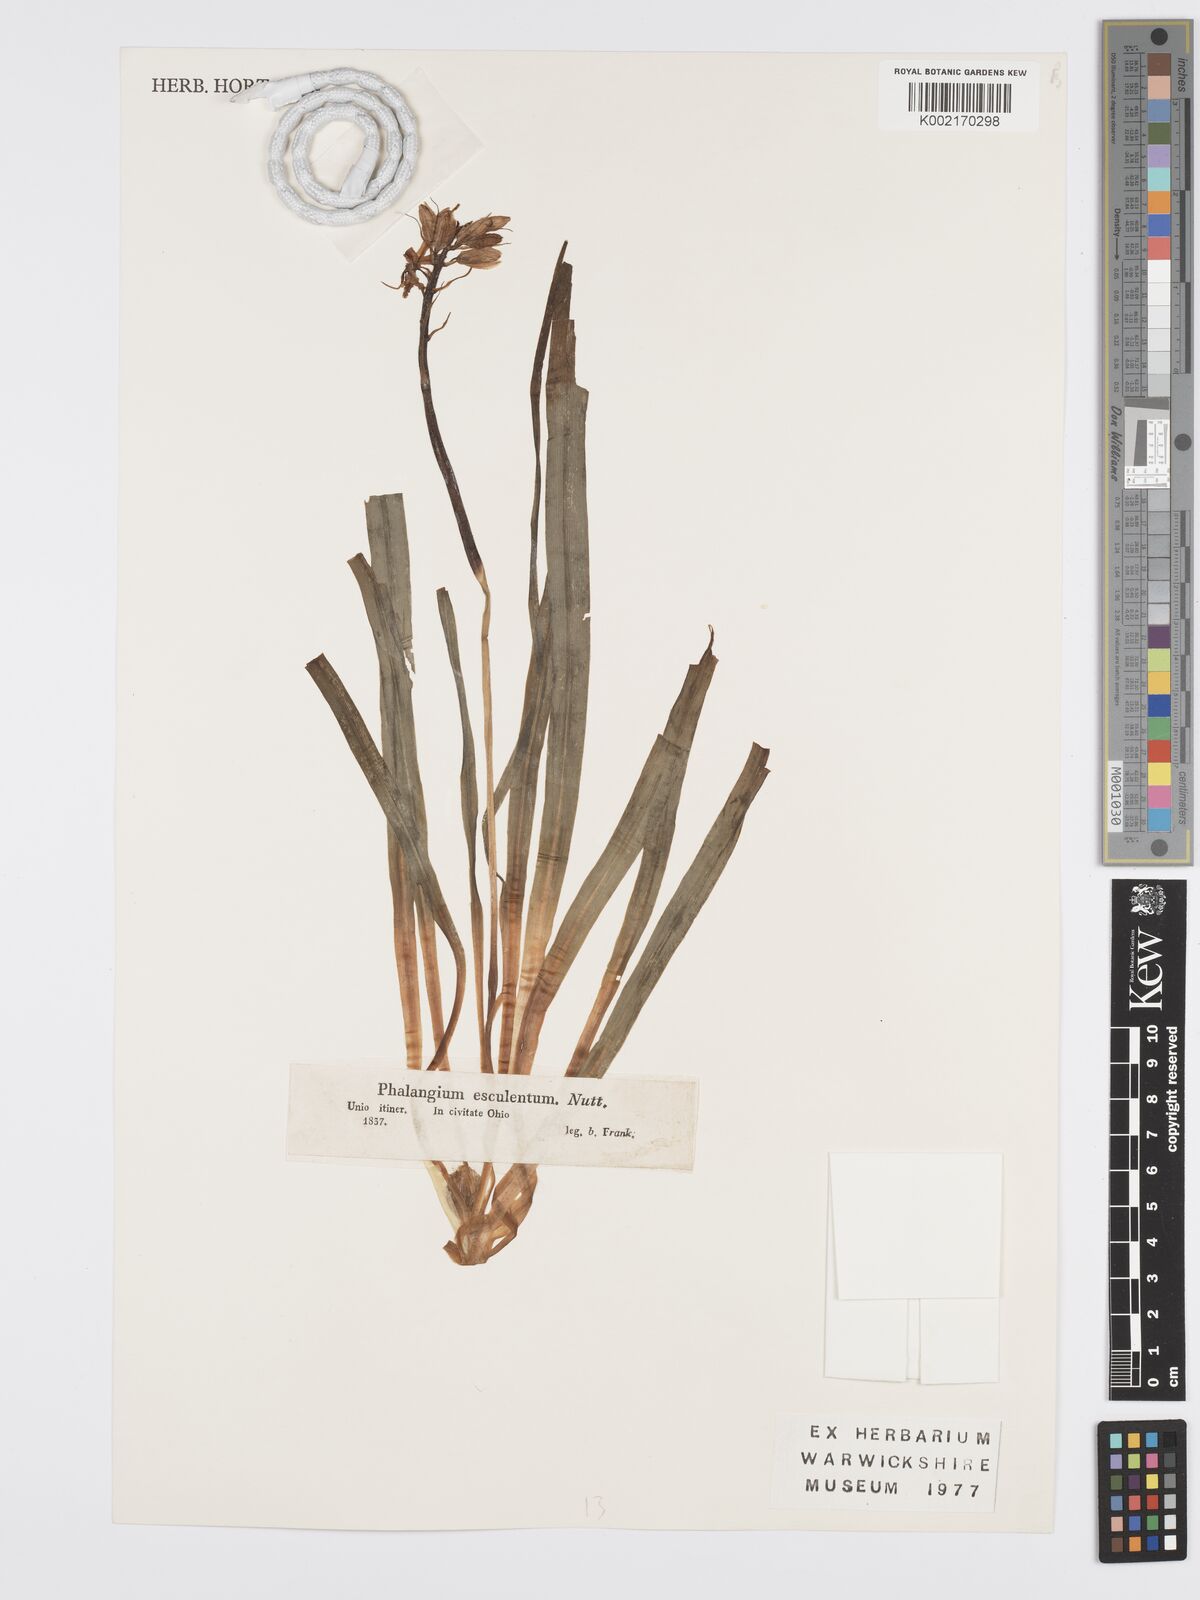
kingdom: Plantae
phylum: Tracheophyta
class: Liliopsida
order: Asparagales
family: Asparagaceae
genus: Camassia
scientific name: Camassia scilloides
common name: Wild hyacinth
